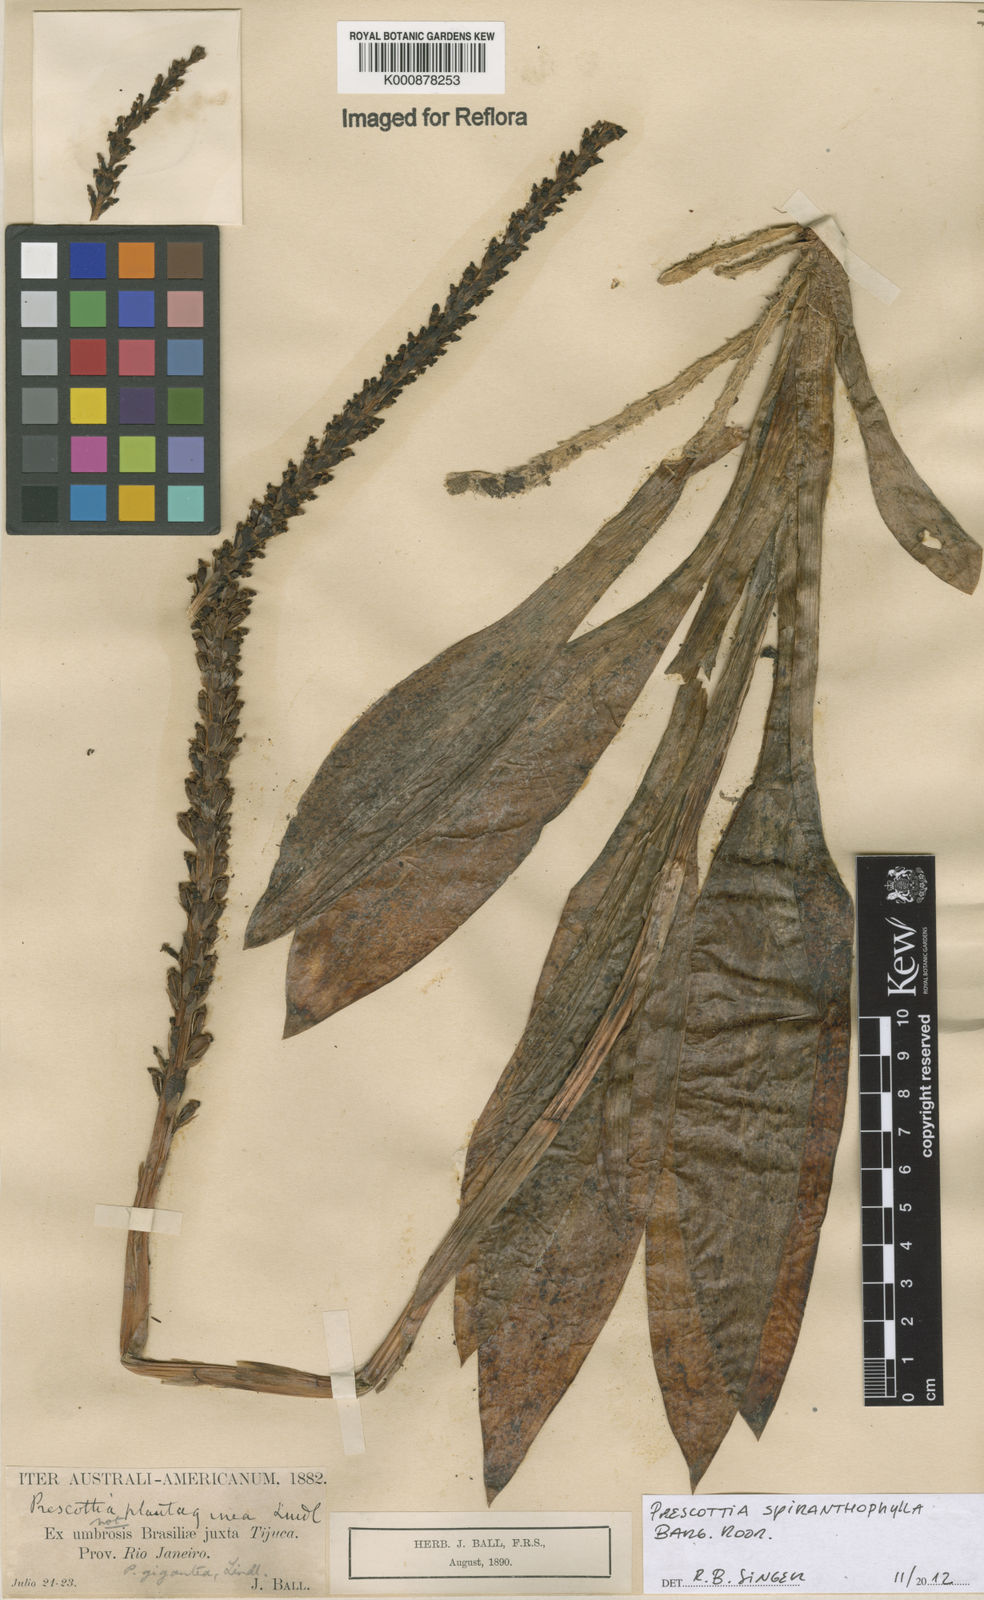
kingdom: Plantae
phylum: Tracheophyta
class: Liliopsida
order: Asparagales
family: Orchidaceae
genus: Prescottia
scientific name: Prescottia spiranthophylla
